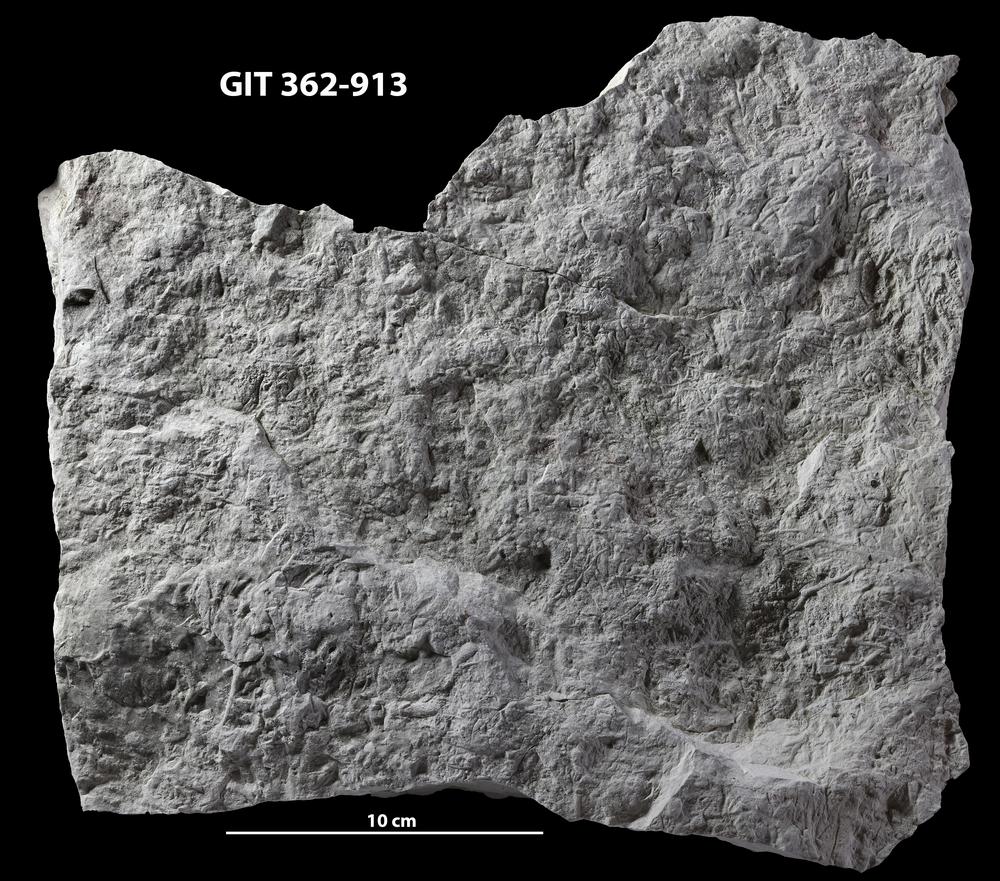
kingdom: Animalia
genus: Chondrites
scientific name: Chondrites
